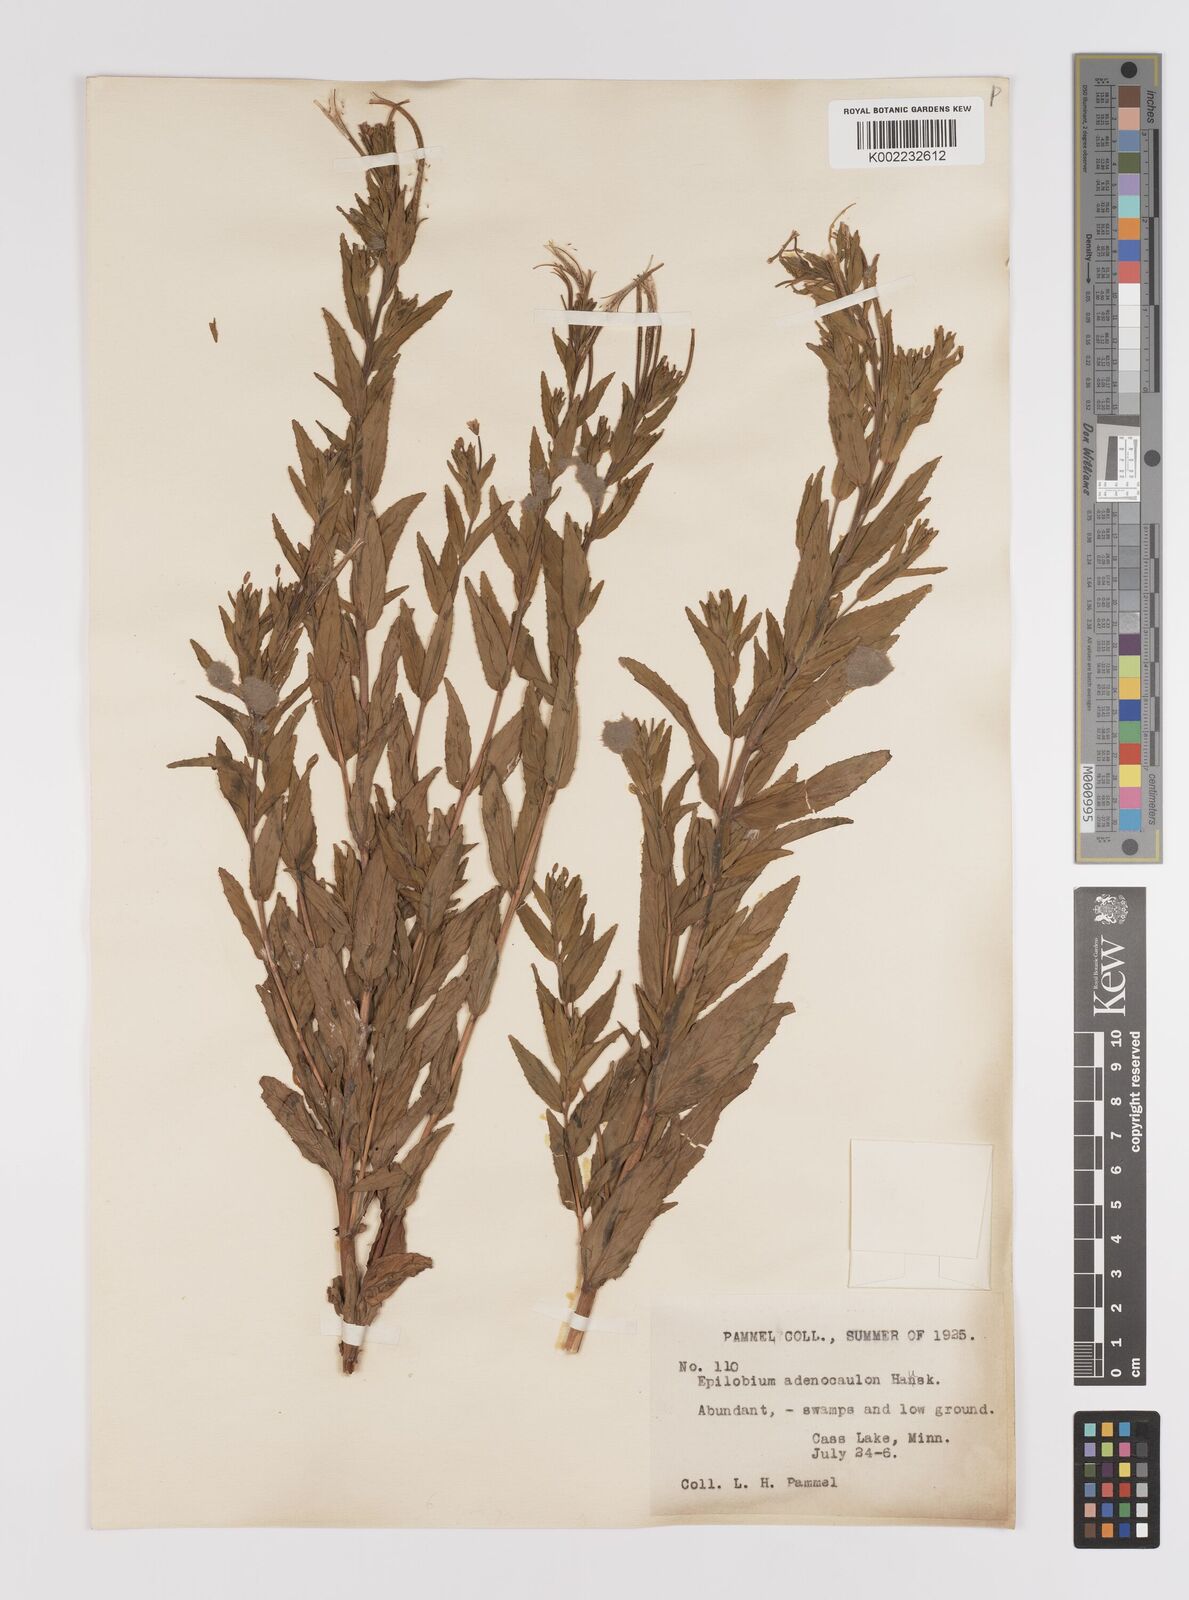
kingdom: Plantae
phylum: Tracheophyta
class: Magnoliopsida
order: Myrtales
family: Onagraceae
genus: Epilobium
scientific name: Epilobium ciliatum
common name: American willowherb
